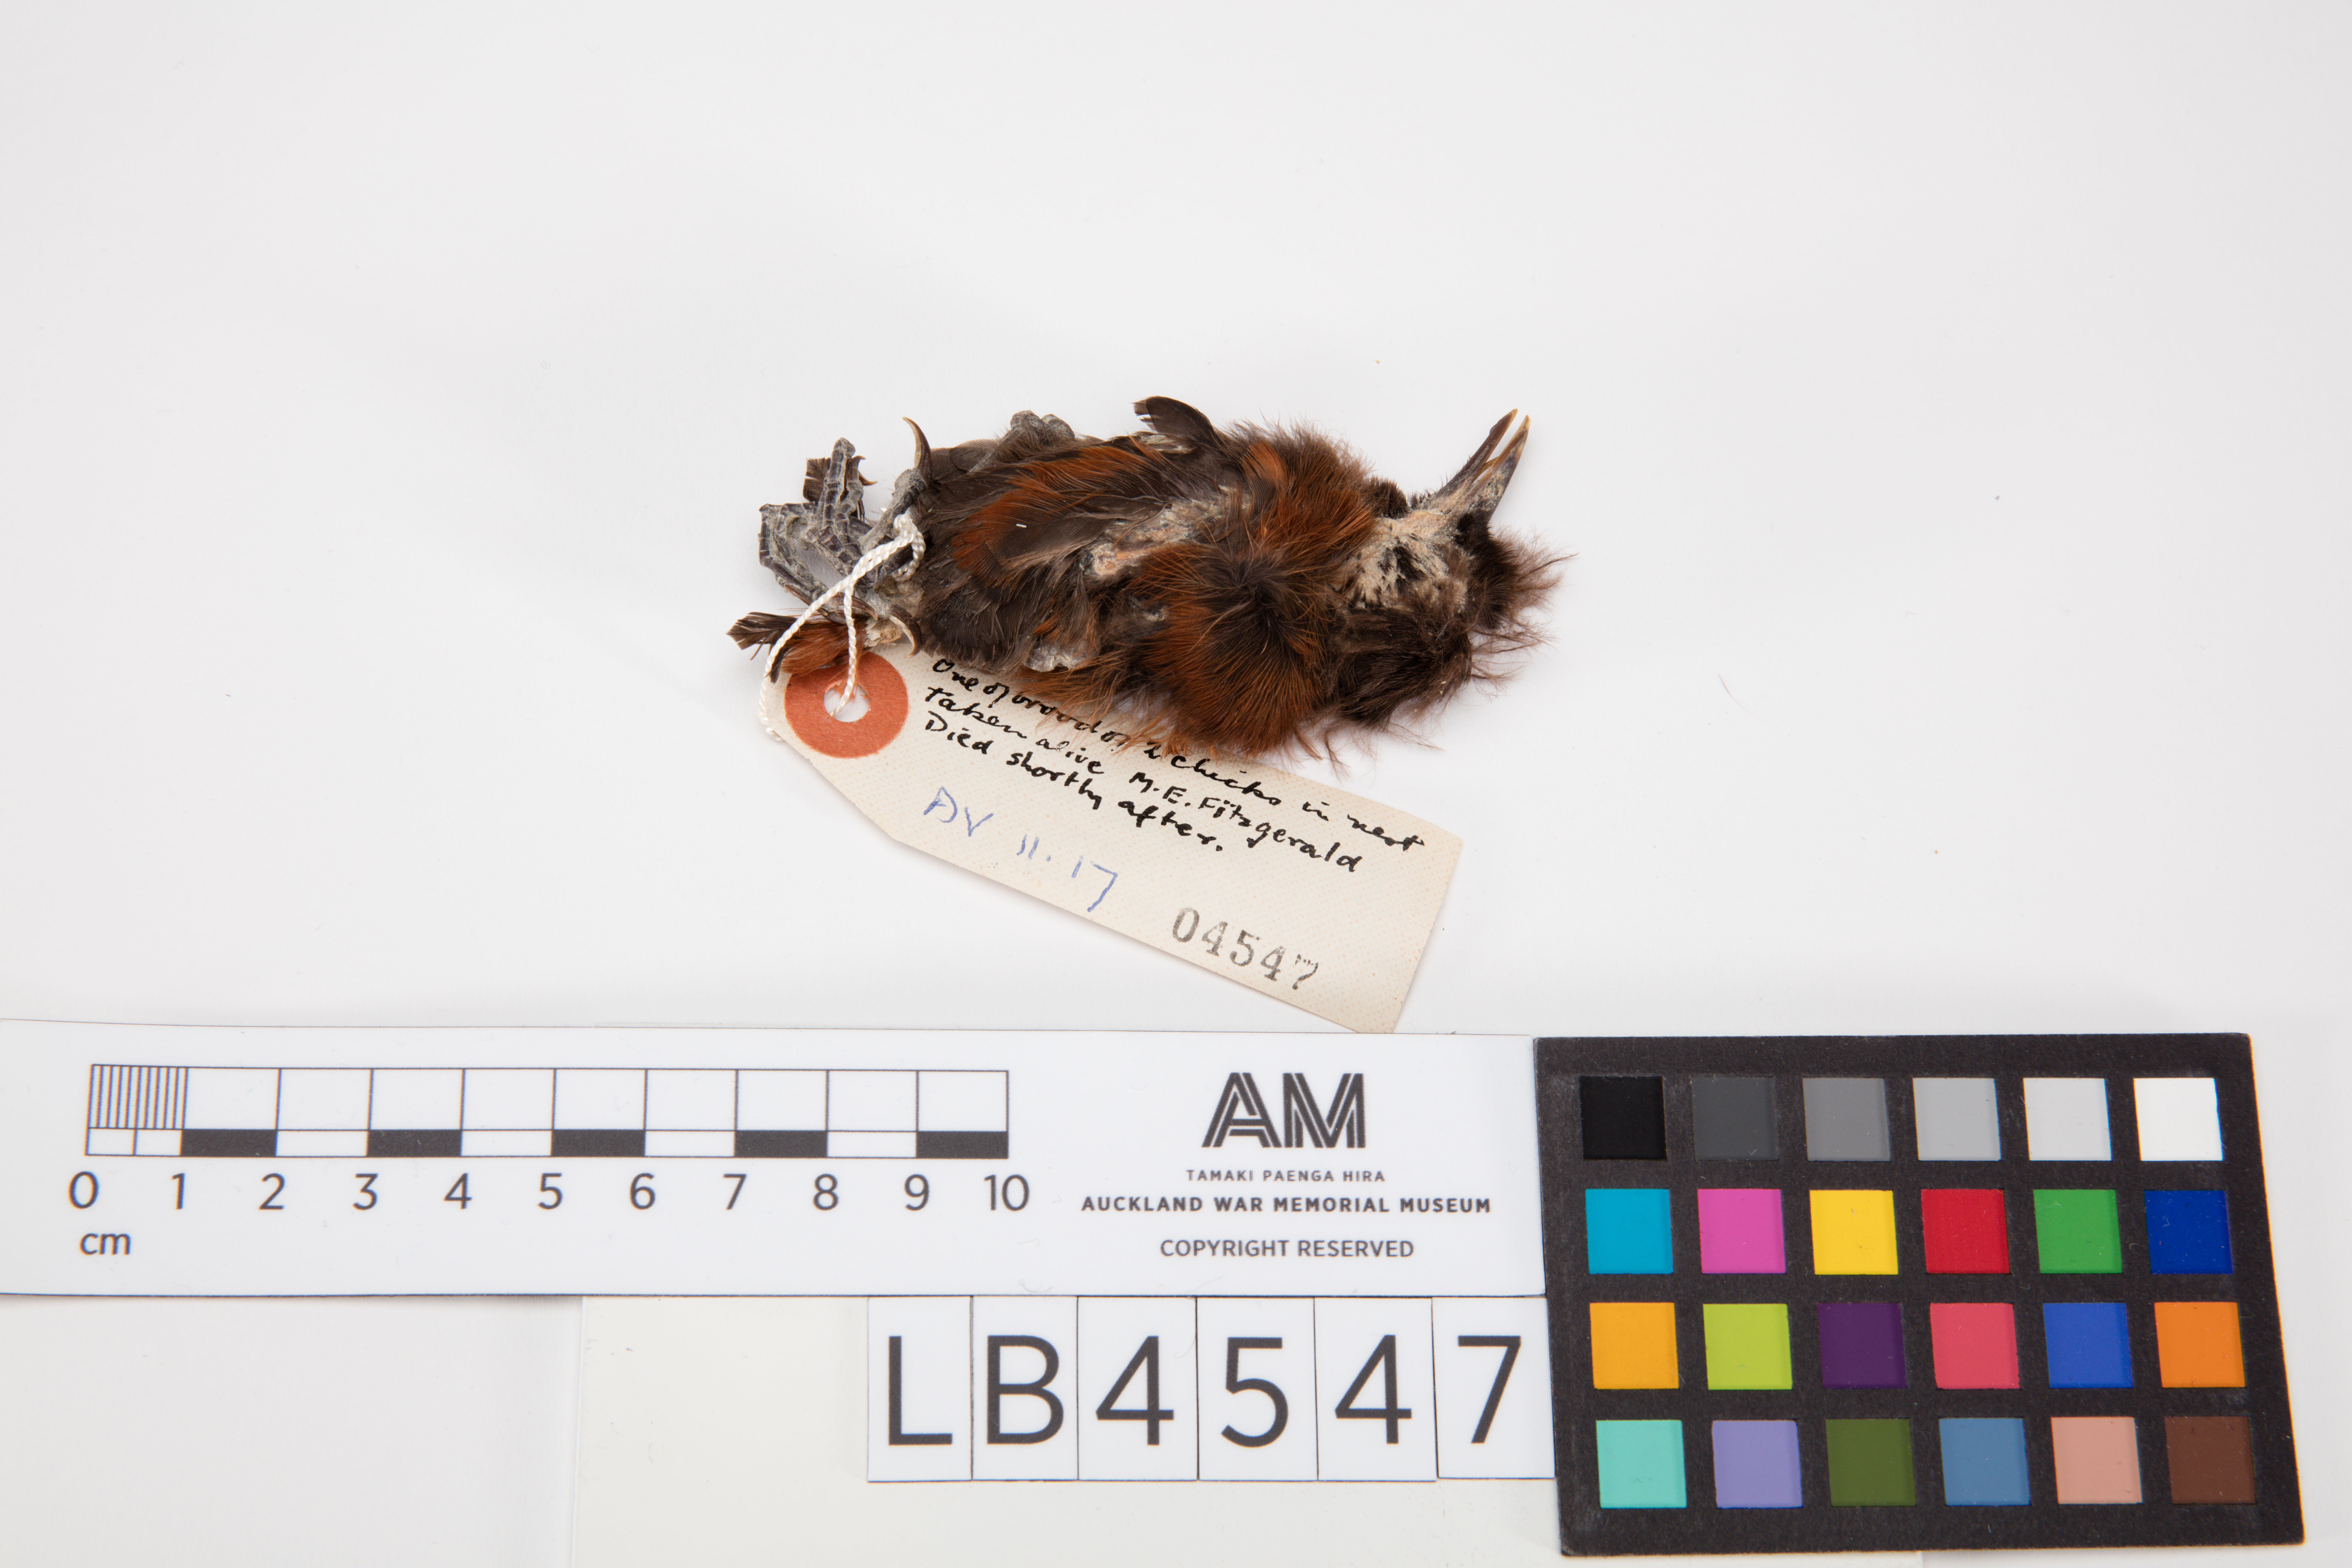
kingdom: Animalia
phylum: Chordata
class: Aves
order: Passeriformes
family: Callaeatidae
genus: Philesturnus
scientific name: Philesturnus carunculatus
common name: South island saddleback
